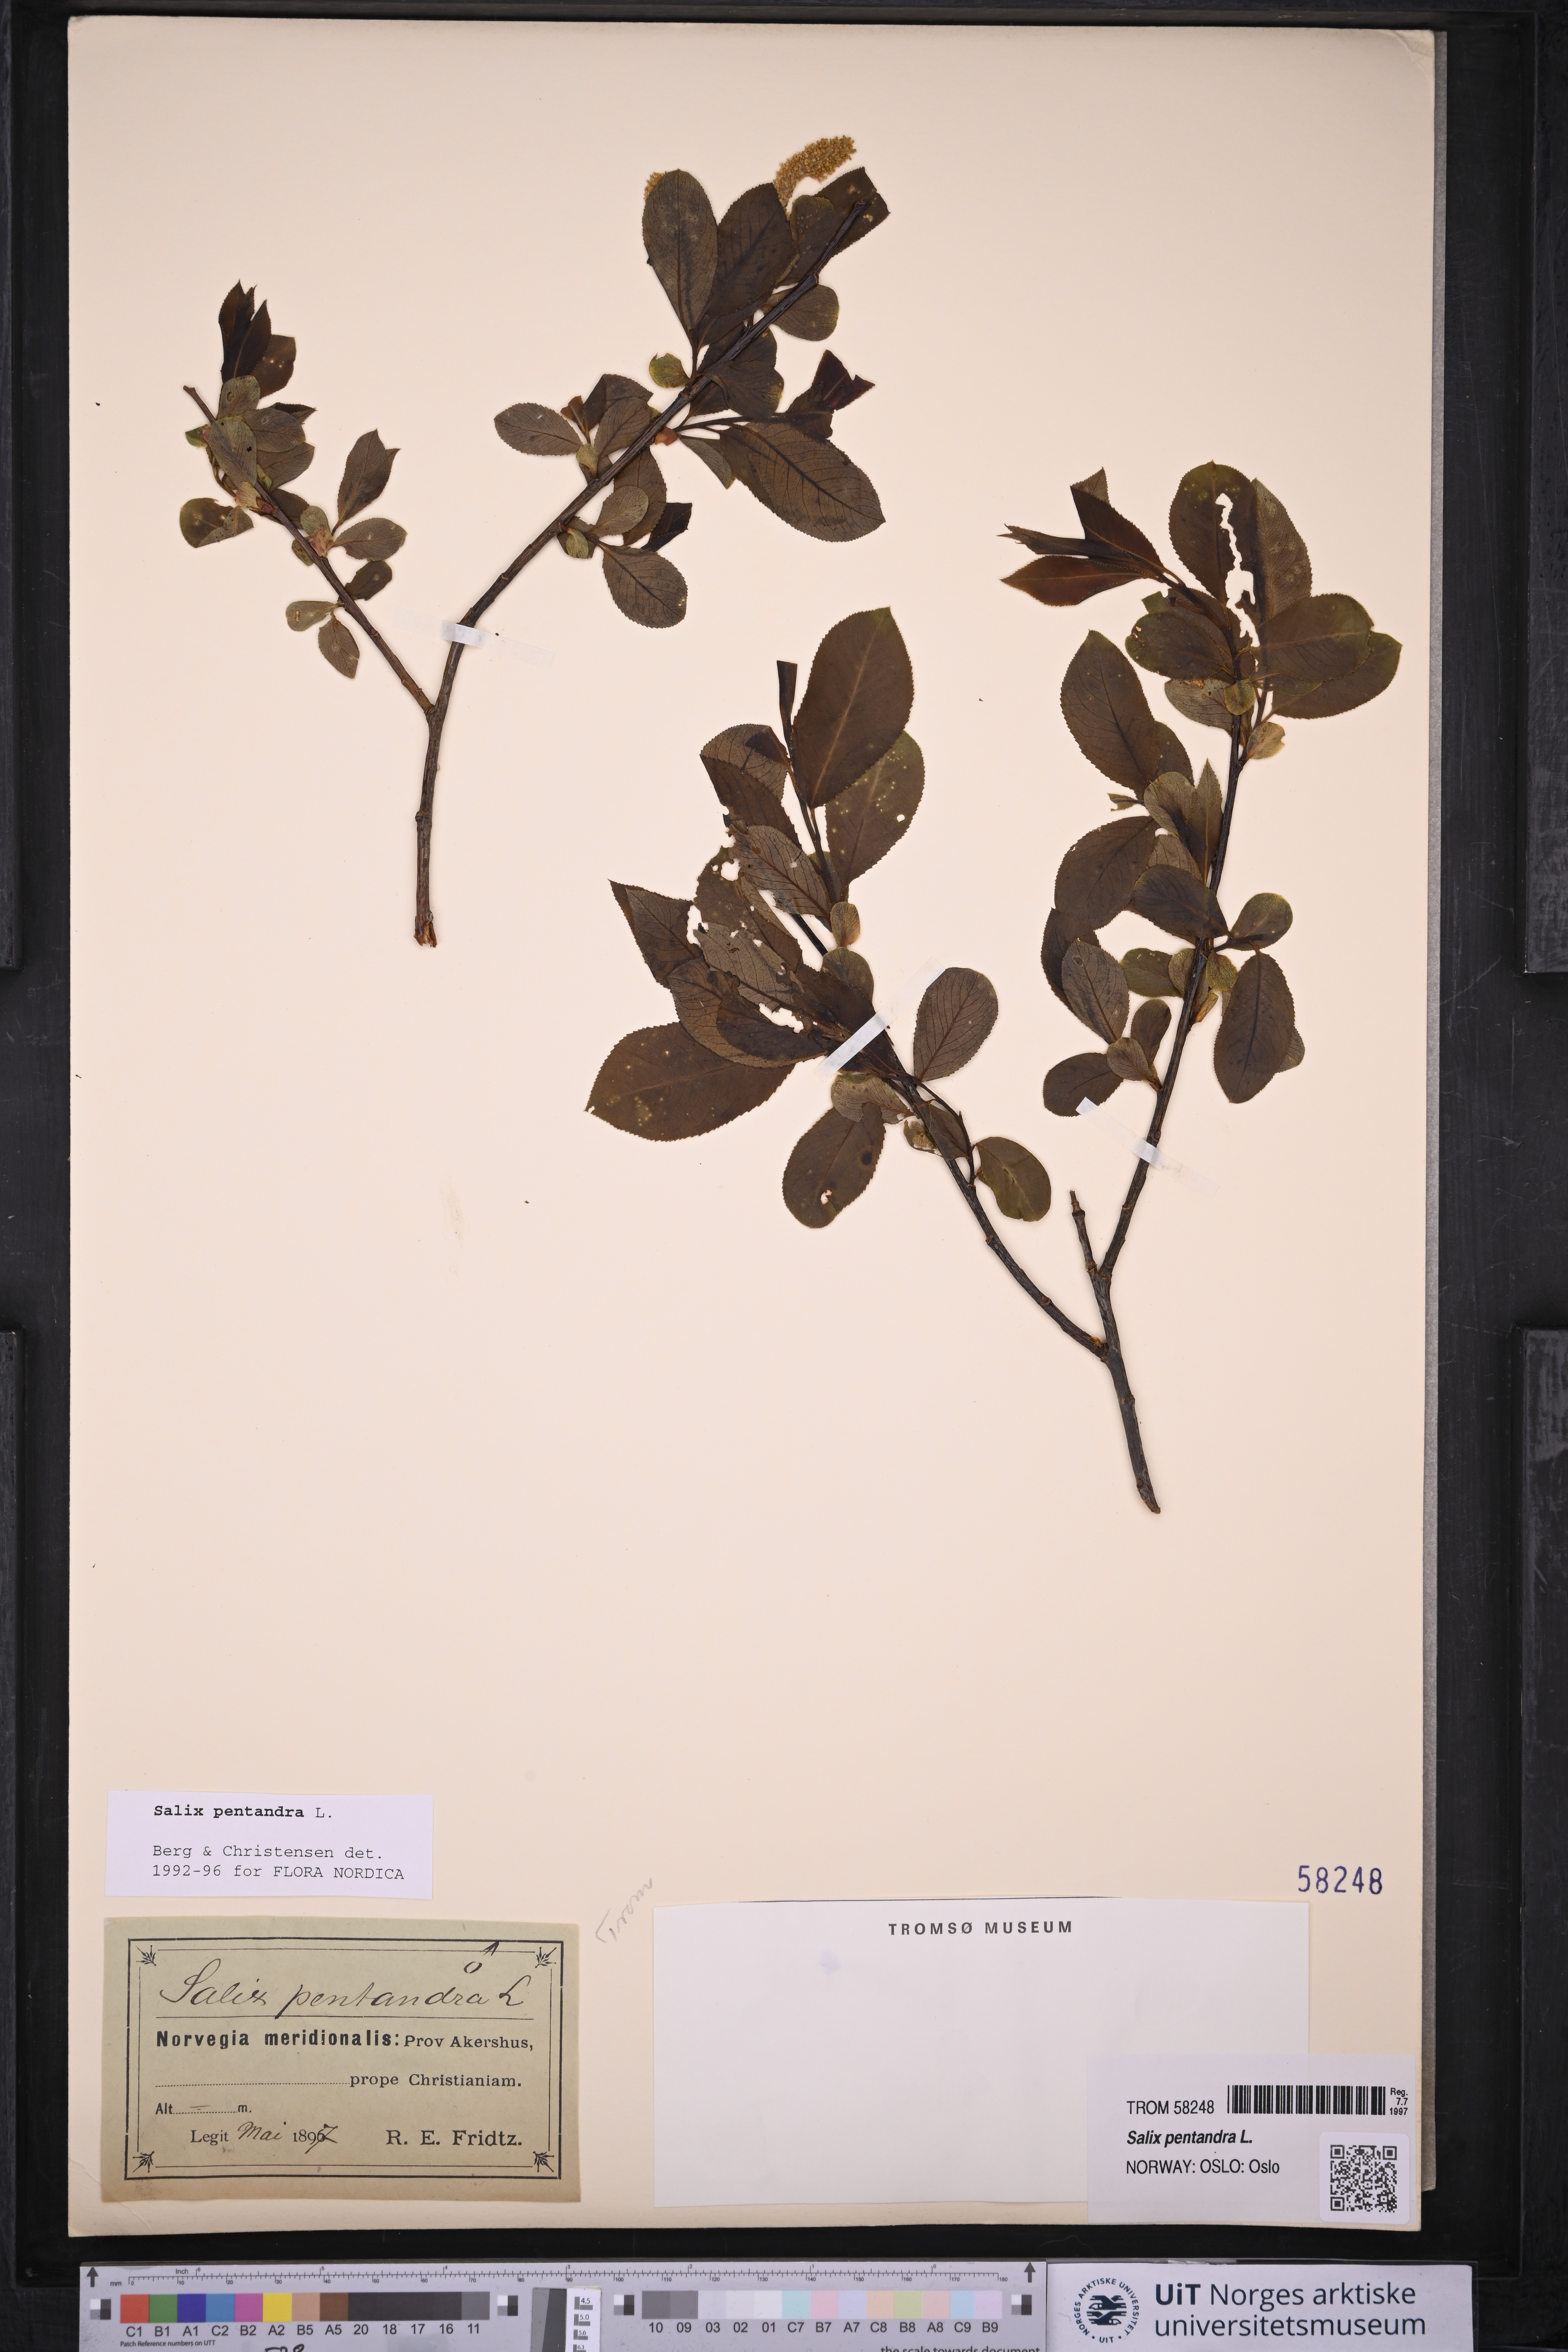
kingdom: Plantae
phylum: Tracheophyta
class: Magnoliopsida
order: Malpighiales
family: Salicaceae
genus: Salix
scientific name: Salix pentandra
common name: Bay willow
